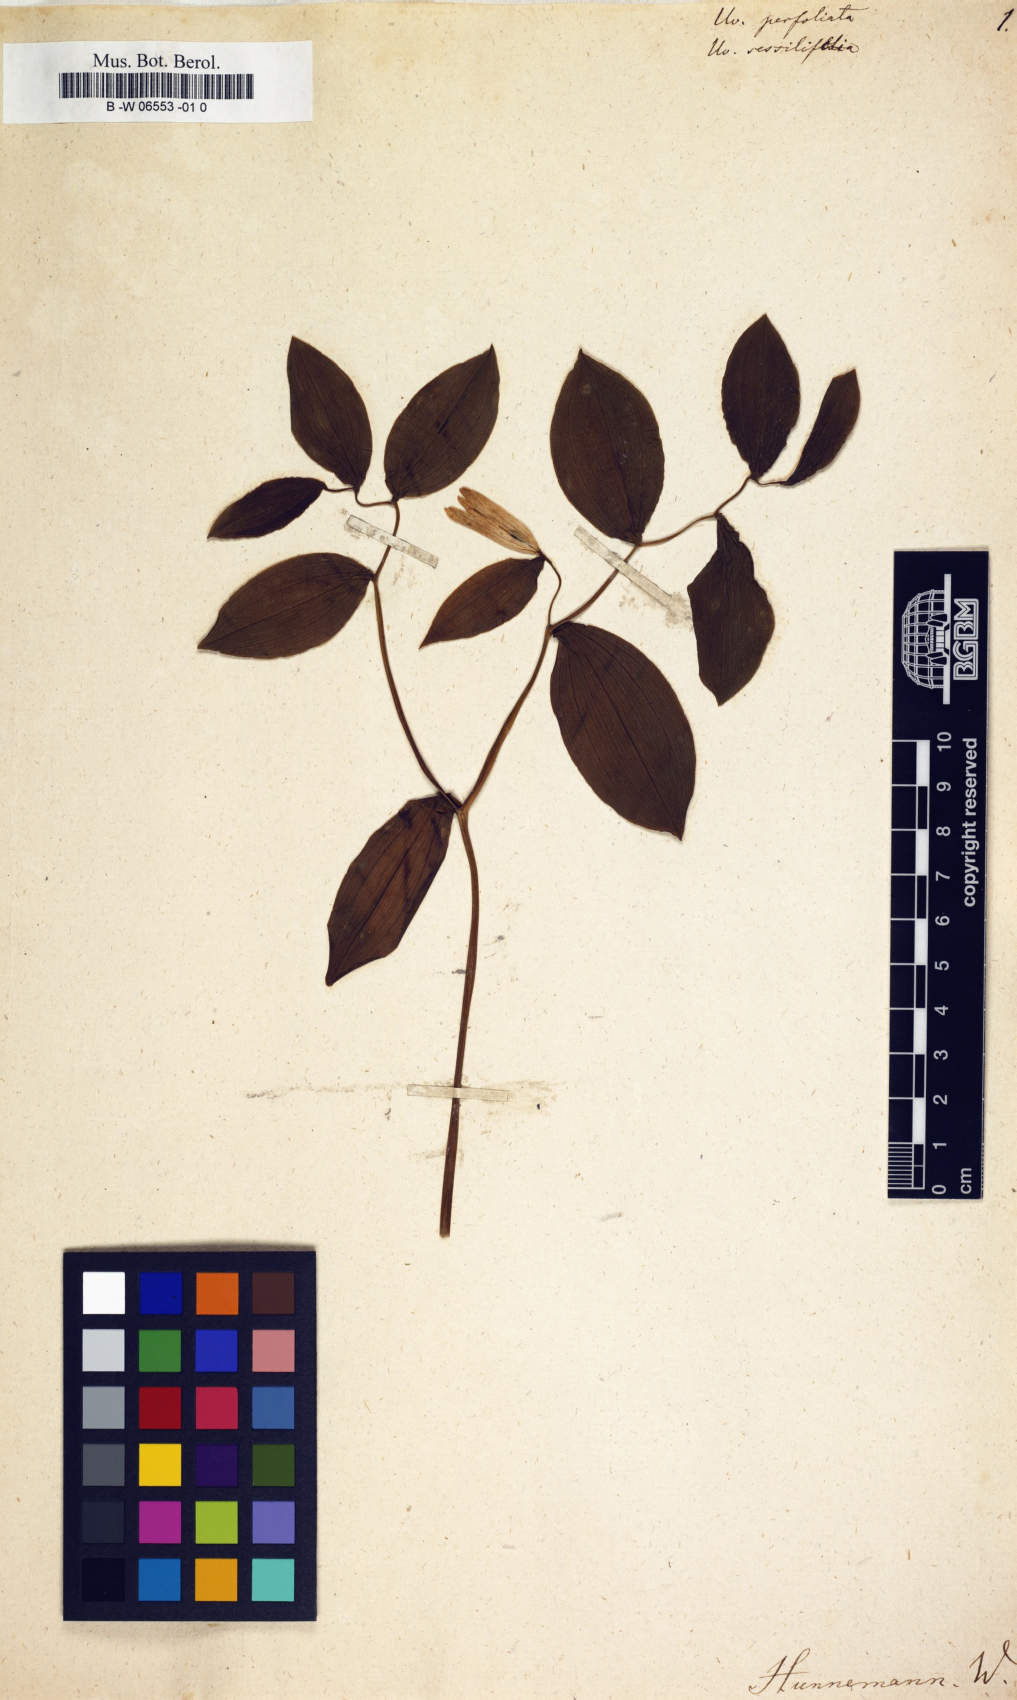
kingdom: Plantae
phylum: Tracheophyta
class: Liliopsida
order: Liliales
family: Colchicaceae
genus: Uvularia
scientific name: Uvularia perfoliata
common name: Perfoliate bellwort
